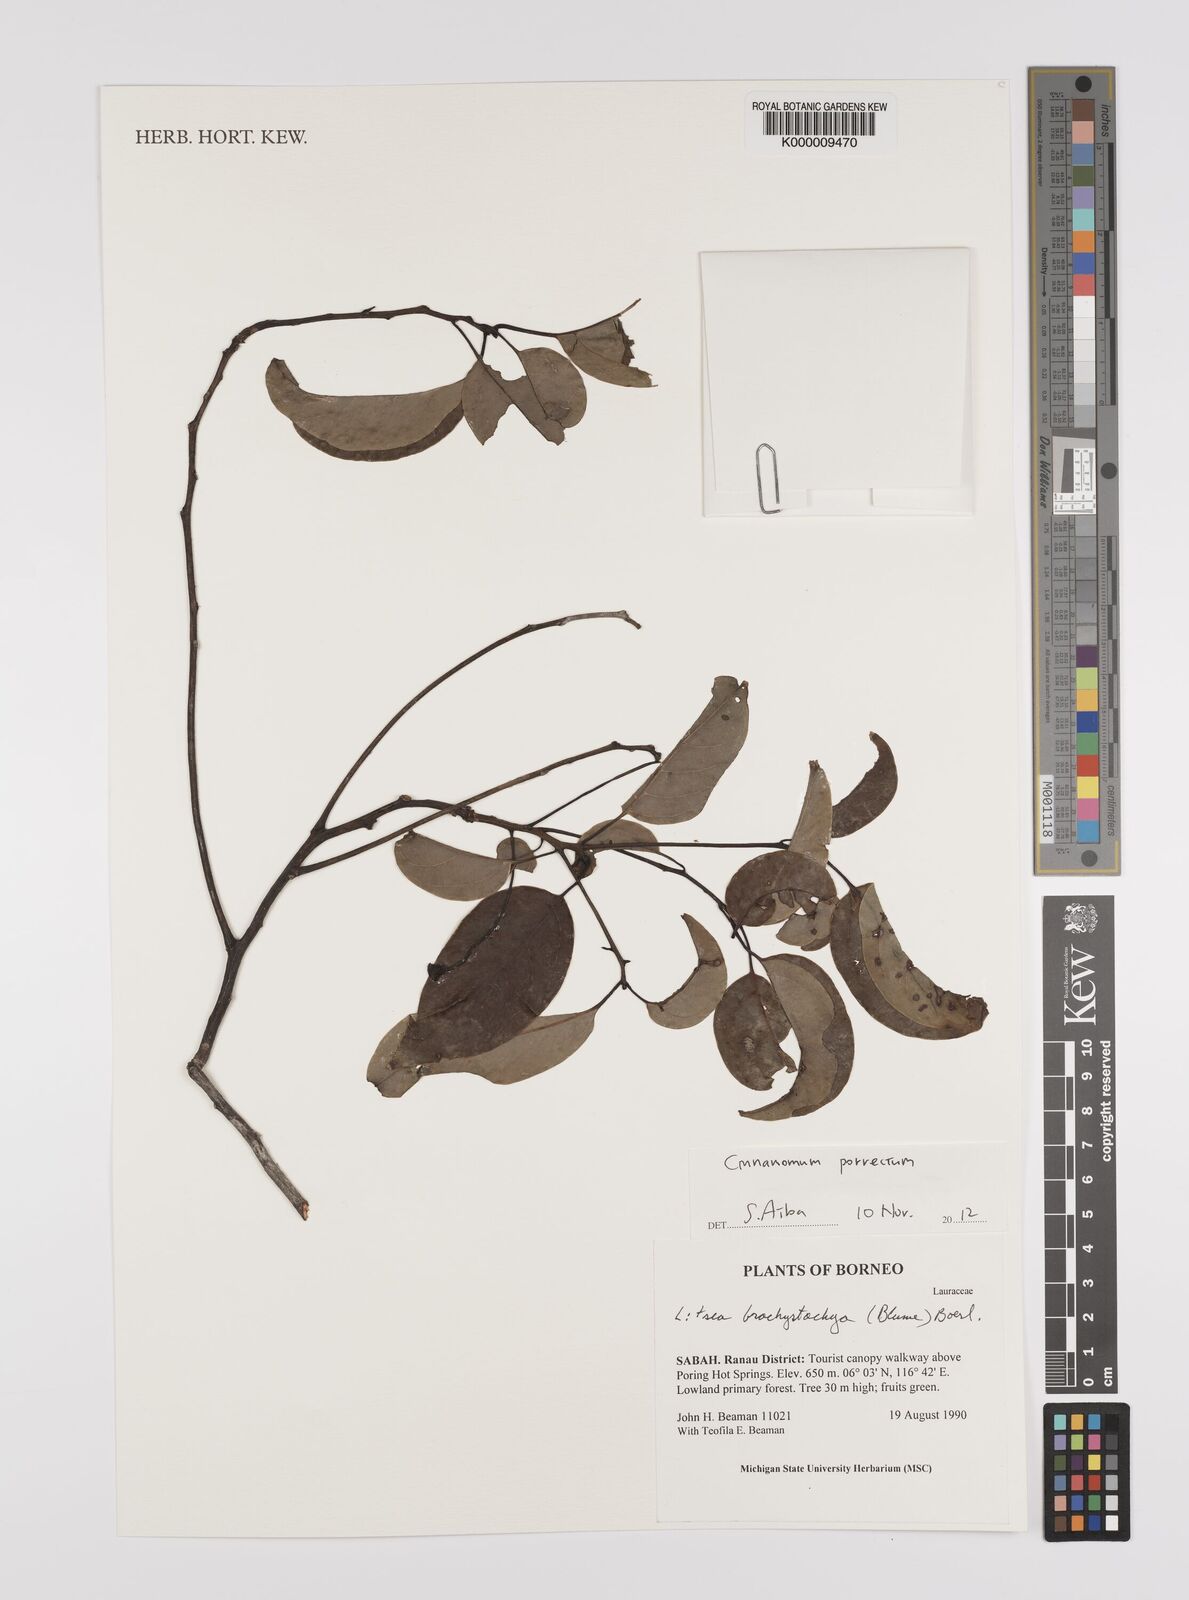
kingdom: Plantae
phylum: Tracheophyta
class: Magnoliopsida
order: Laurales
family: Lauraceae
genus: Litsea
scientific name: Litsea
